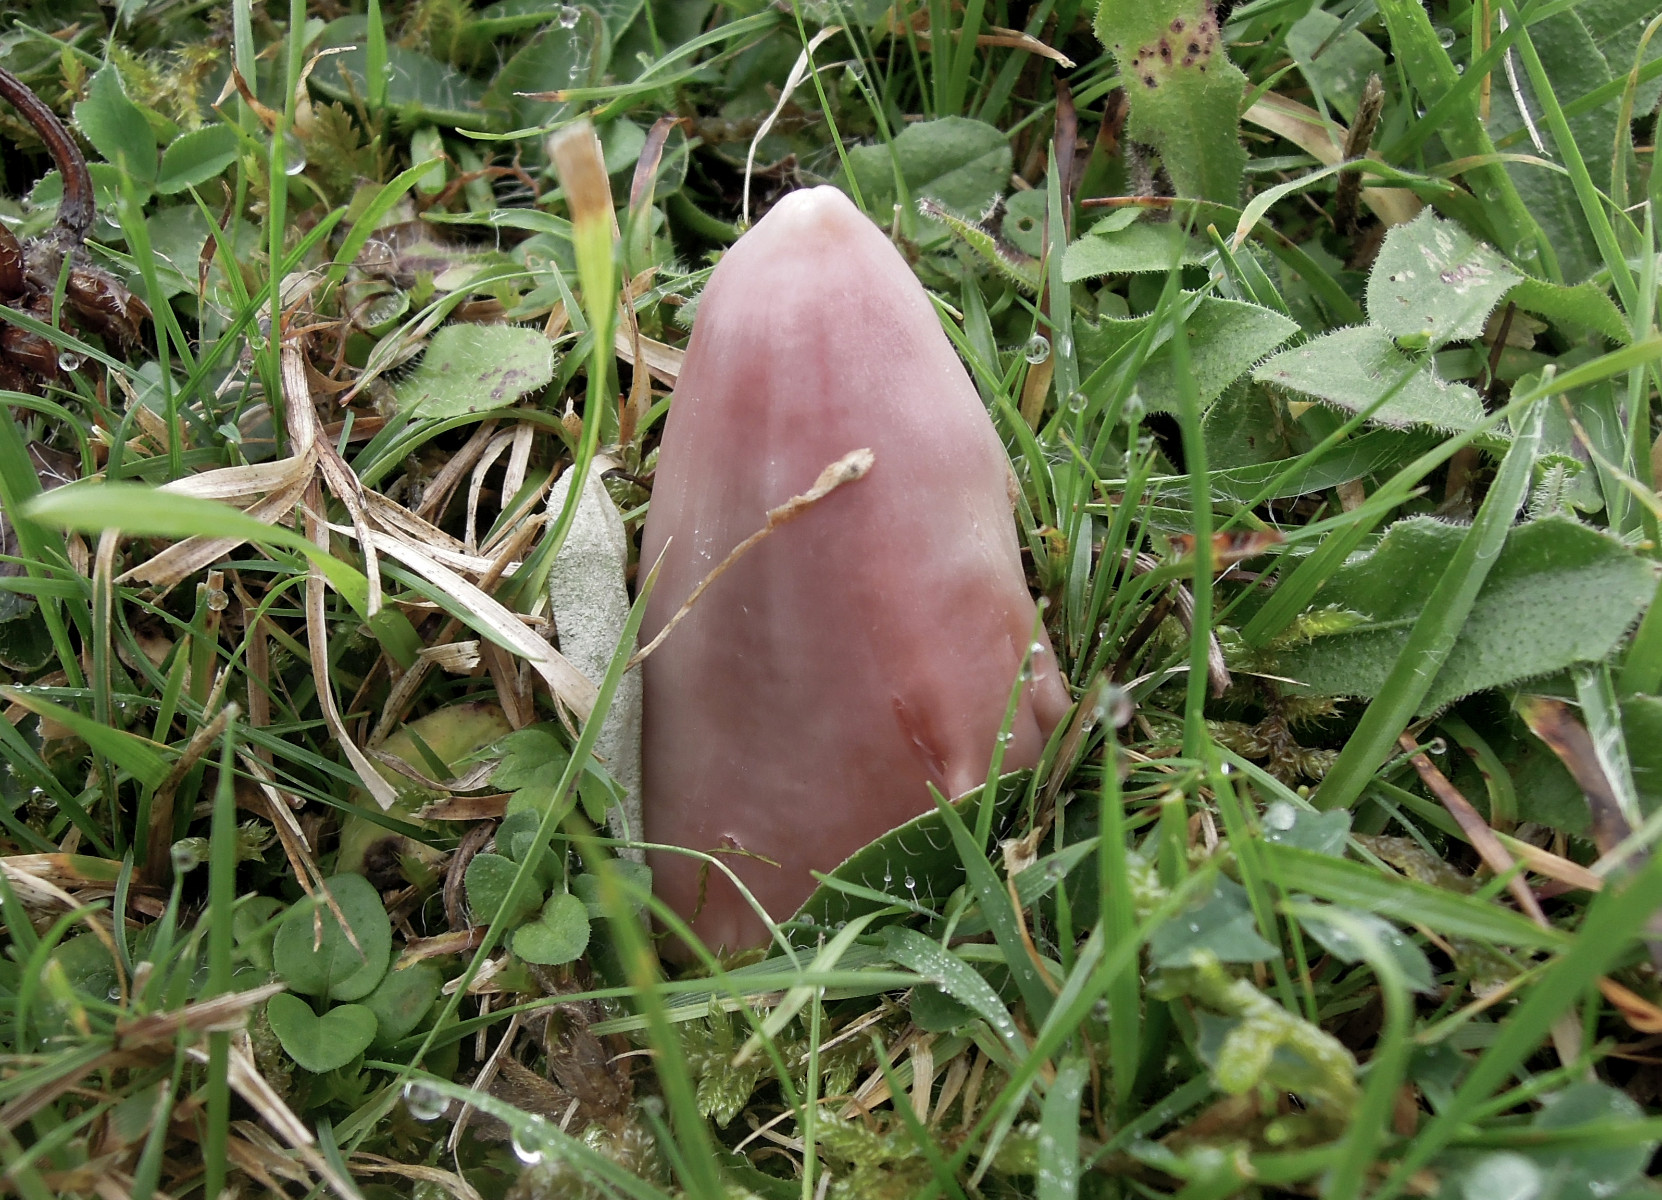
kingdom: Fungi
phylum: Basidiomycota
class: Agaricomycetes
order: Agaricales
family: Hygrophoraceae
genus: Porpolomopsis
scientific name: Porpolomopsis calyptriformis
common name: rosenrød vokshat
